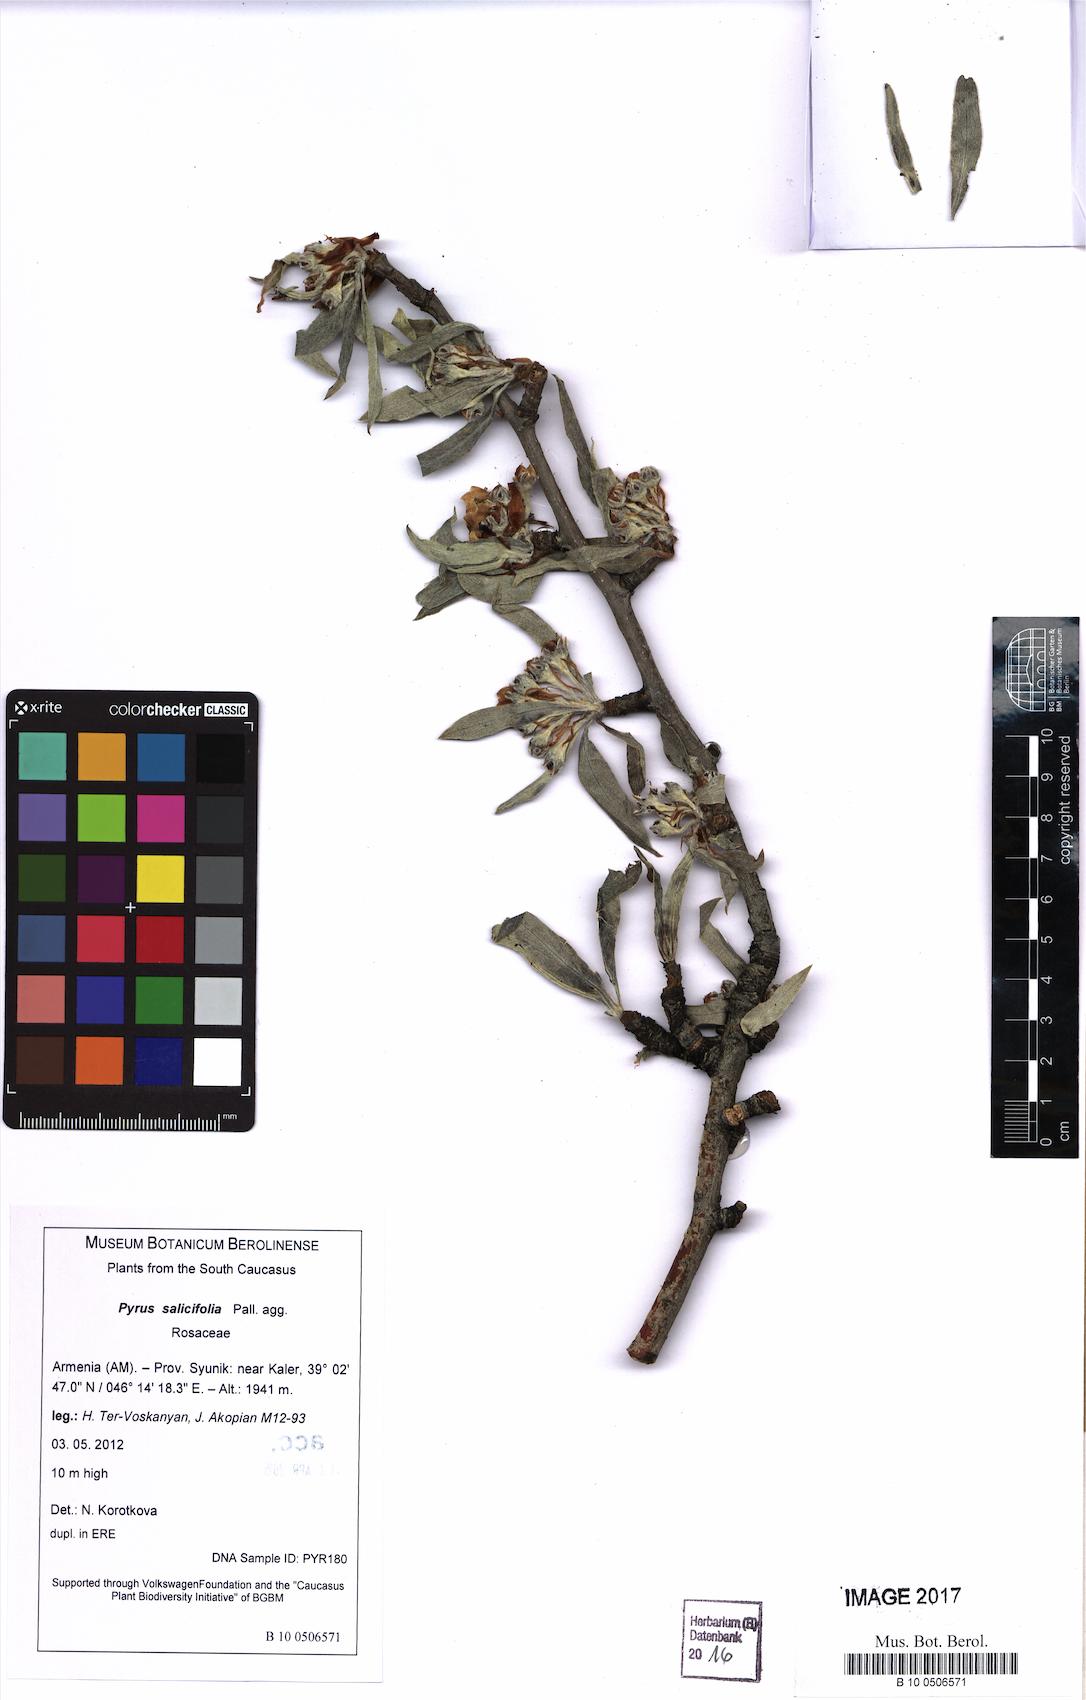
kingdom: Plantae
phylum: Tracheophyta
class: Magnoliopsida
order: Rosales
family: Rosaceae
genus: Pyrus
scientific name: Pyrus salicifolia
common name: Willow-leaved pear
